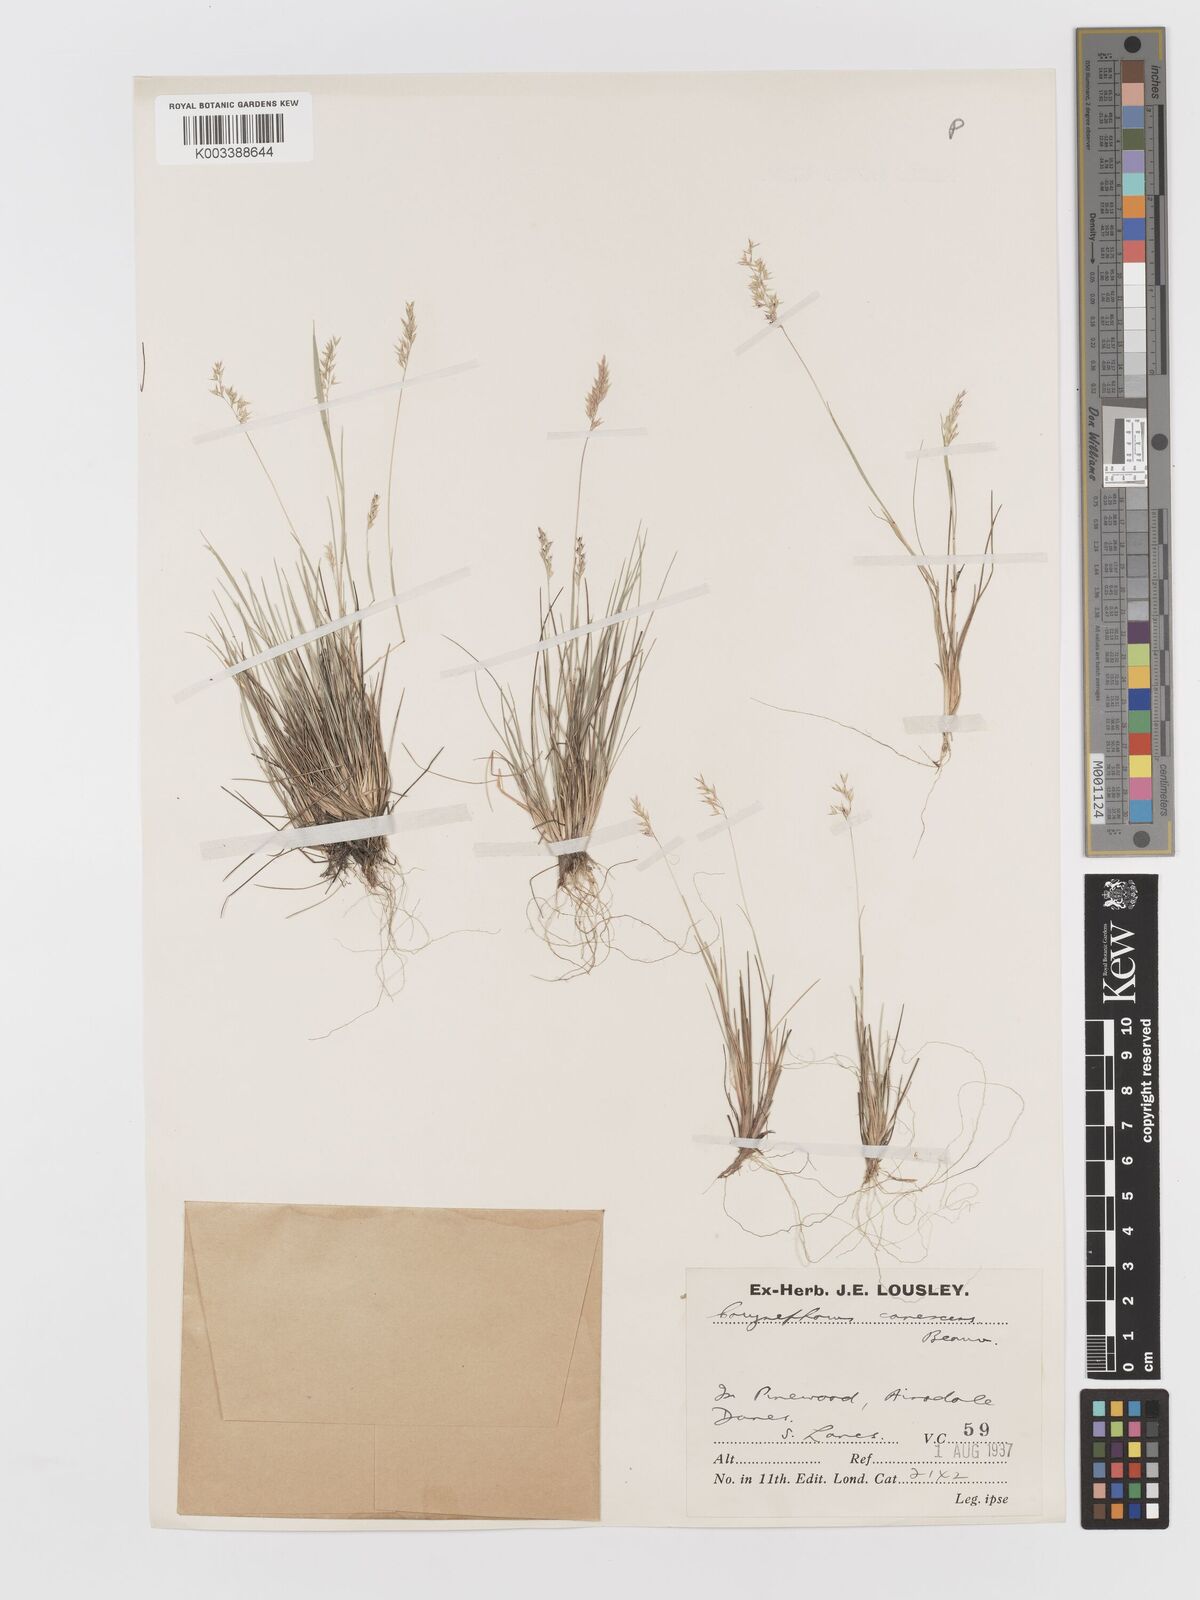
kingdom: Plantae
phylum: Tracheophyta
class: Liliopsida
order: Poales
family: Poaceae
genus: Corynephorus
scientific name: Corynephorus canescens
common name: Grey hair-grass
